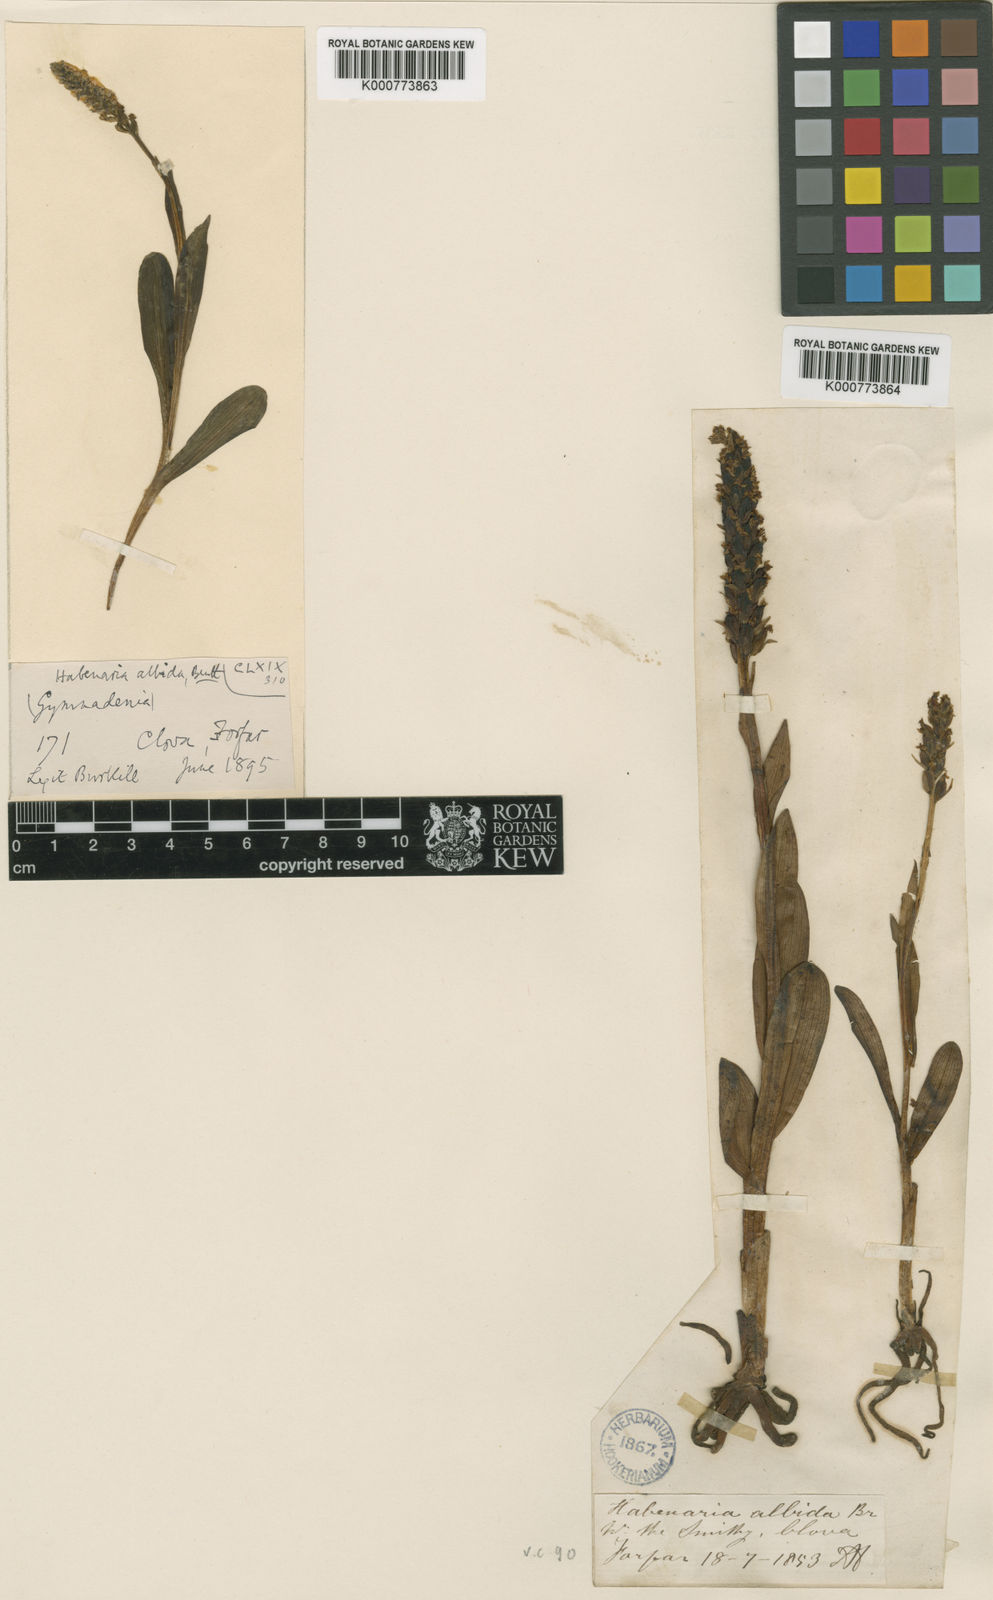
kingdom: Plantae
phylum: Tracheophyta
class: Liliopsida
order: Asparagales
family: Orchidaceae
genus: Pseudorchis
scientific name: Pseudorchis
